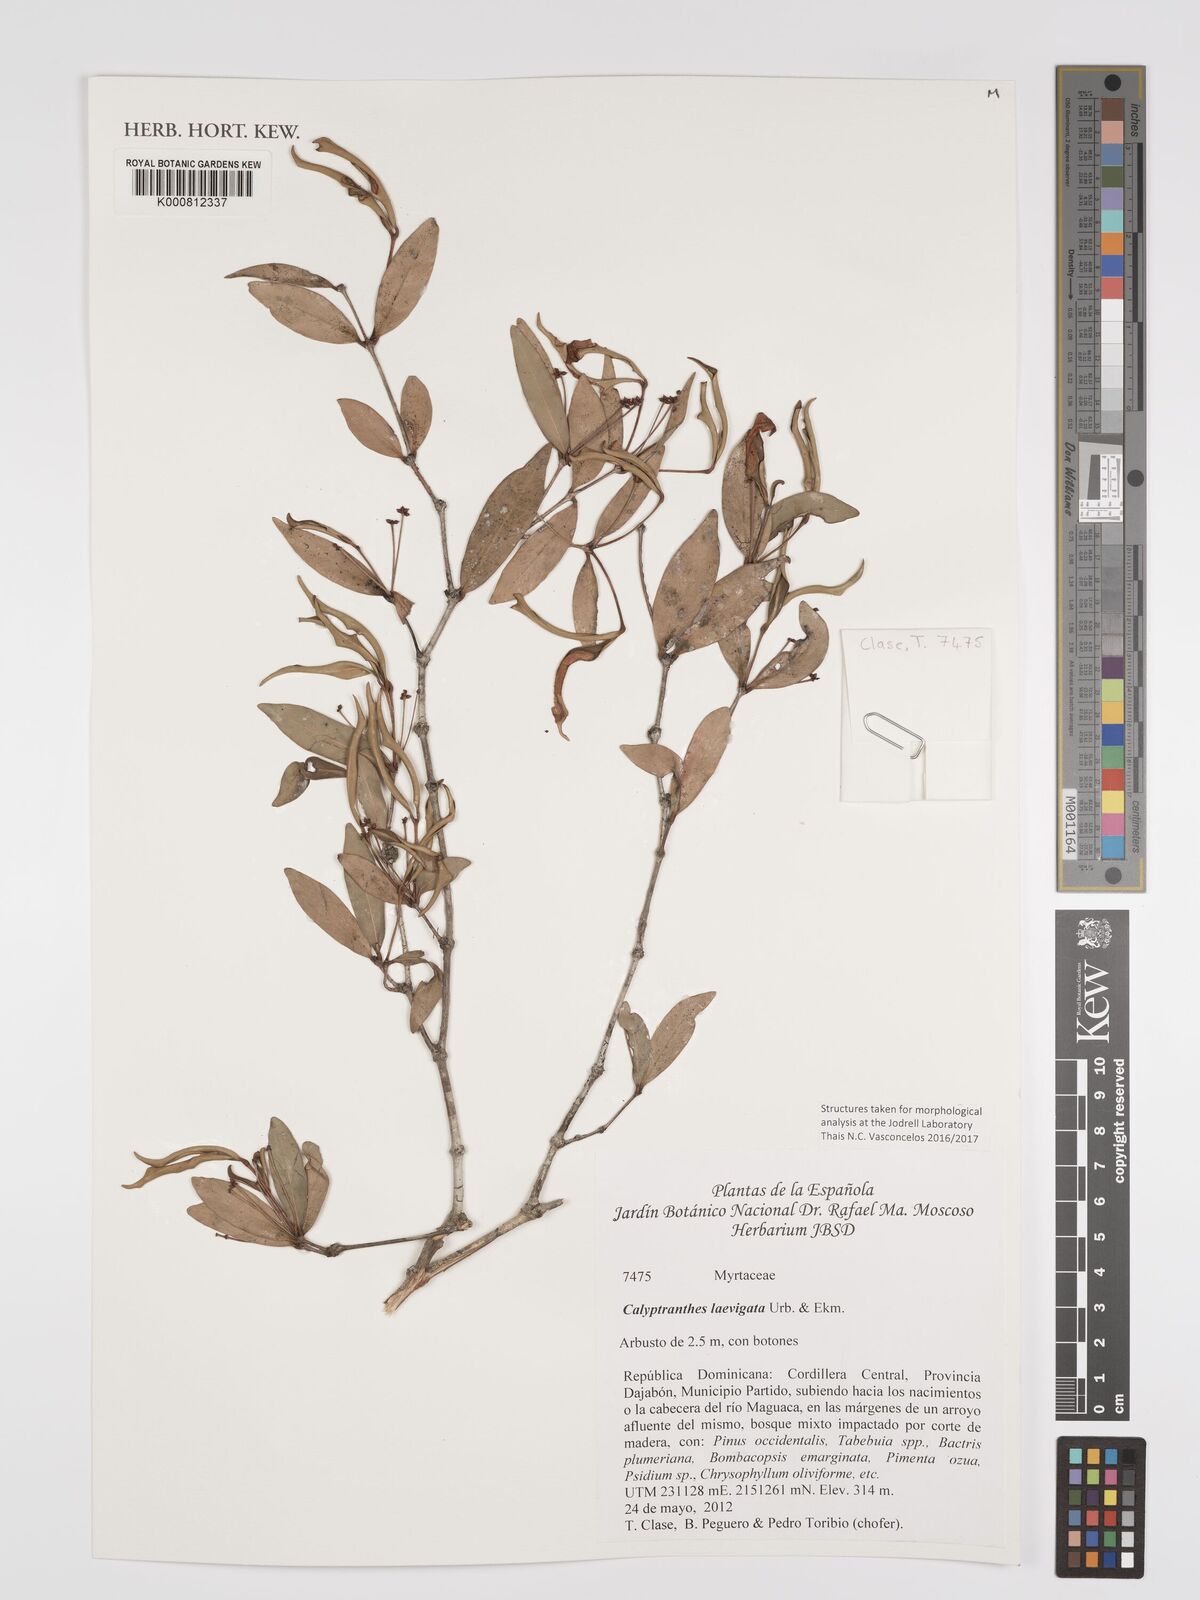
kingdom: Plantae
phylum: Tracheophyta
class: Magnoliopsida
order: Myrtales
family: Myrtaceae
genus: Myrcia
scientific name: Myrcia neolaevigata
